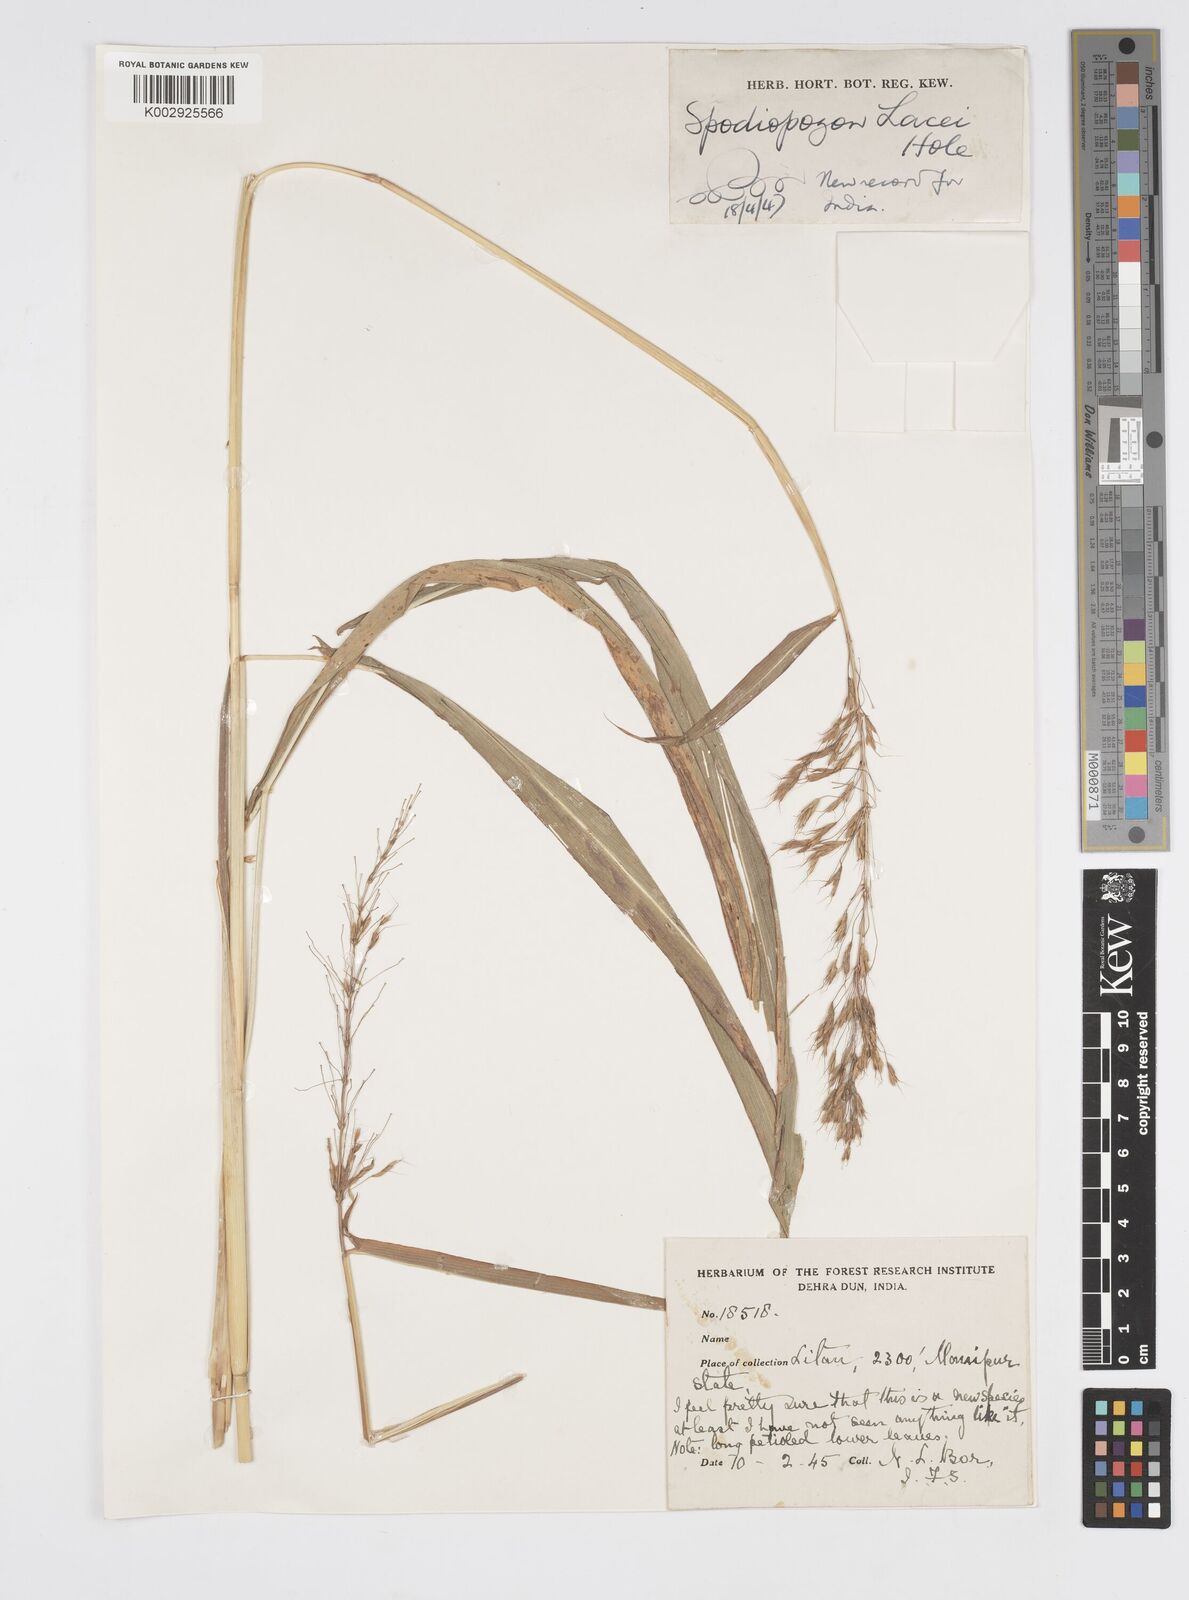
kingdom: Plantae
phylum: Tracheophyta
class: Liliopsida
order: Poales
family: Poaceae
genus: Spodiopogon
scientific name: Spodiopogon lacei
